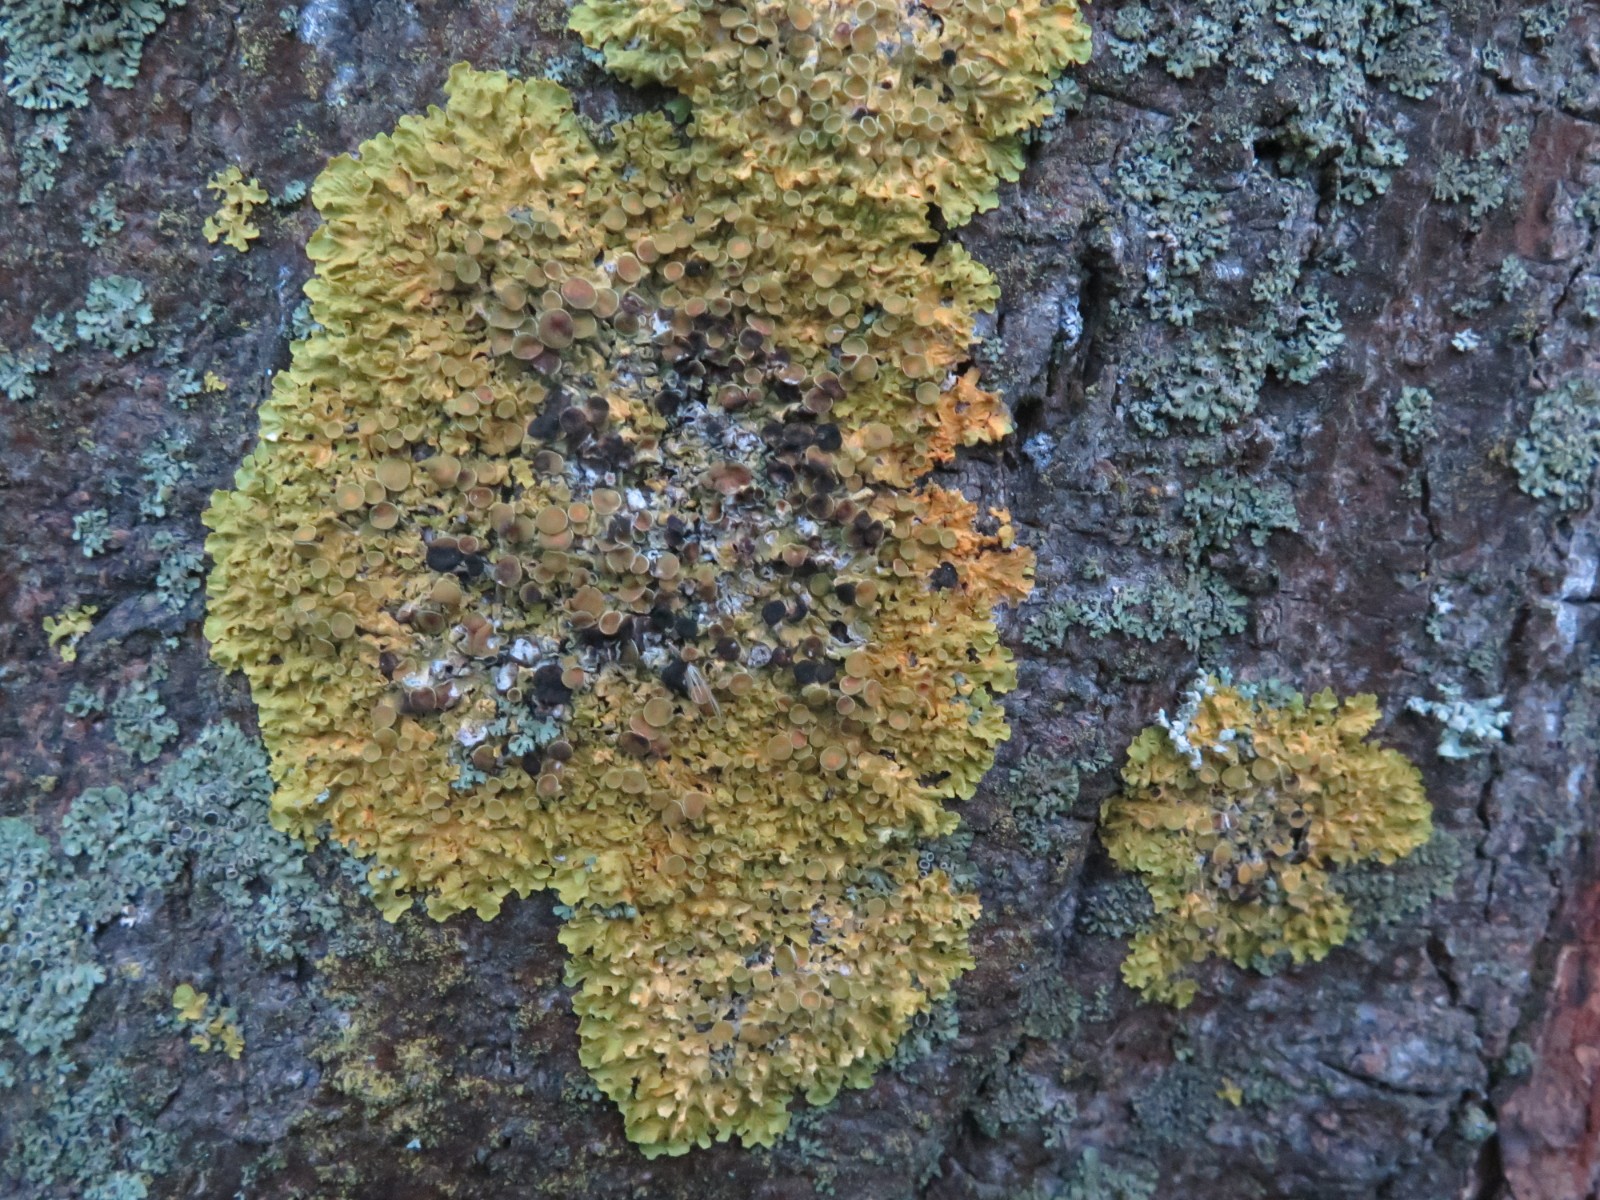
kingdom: Fungi
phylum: Ascomycota
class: Dothideomycetes
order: Mycosphaerellales
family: Teratosphaeriaceae
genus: Xanthoriicola
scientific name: Xanthoriicola physciae
